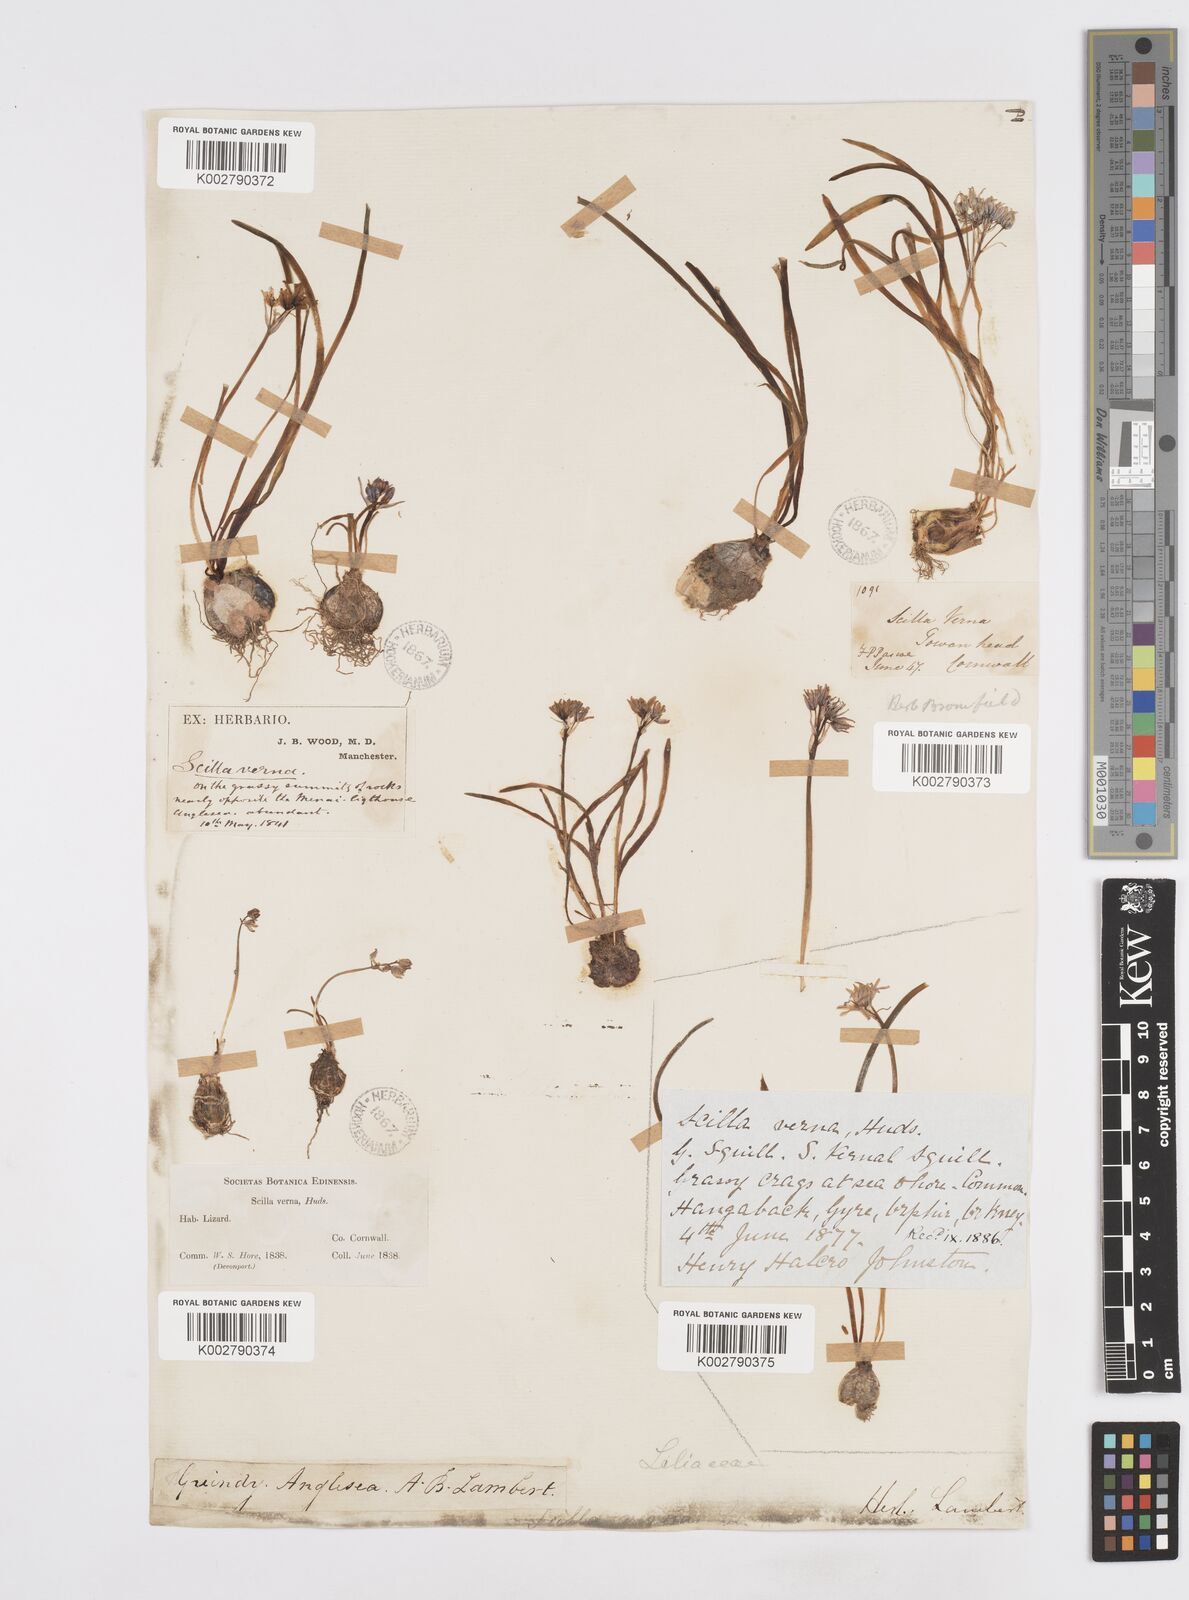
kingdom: Plantae
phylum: Tracheophyta
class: Liliopsida
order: Asparagales
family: Asparagaceae
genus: Scilla
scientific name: Scilla verna
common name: Spring squill
